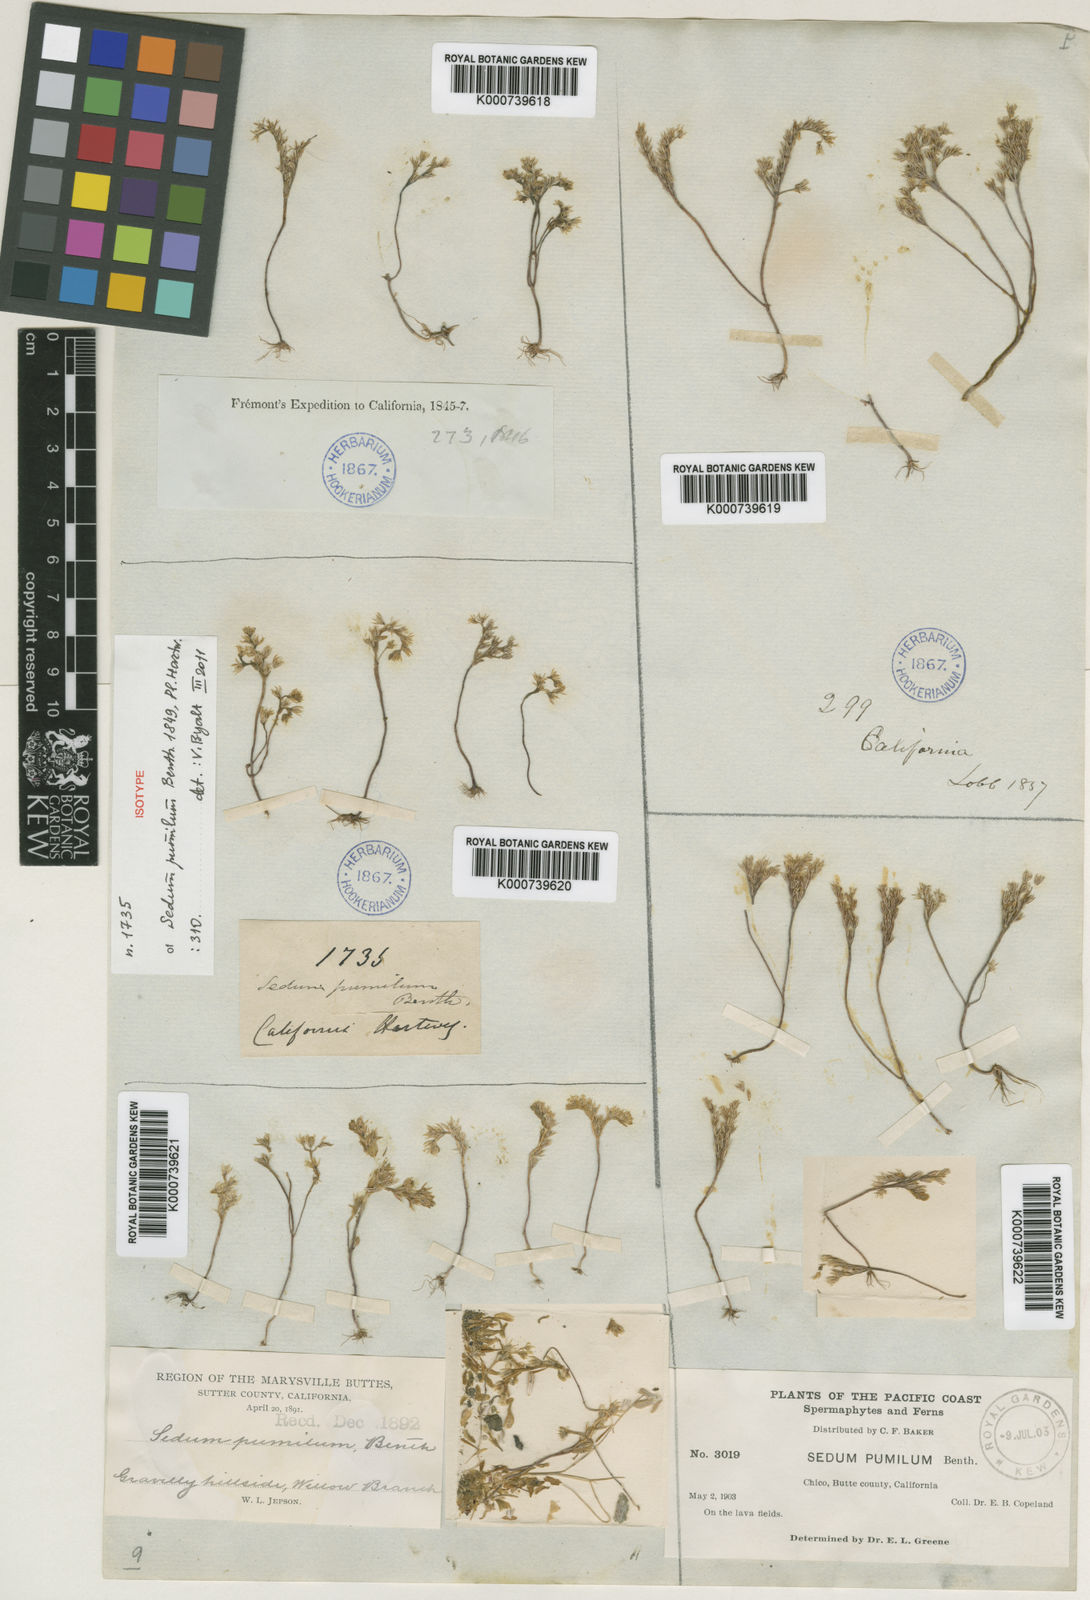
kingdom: Plantae
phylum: Tracheophyta
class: Magnoliopsida
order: Saxifragales
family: Crassulaceae
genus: Sedella
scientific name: Sedella pumila
